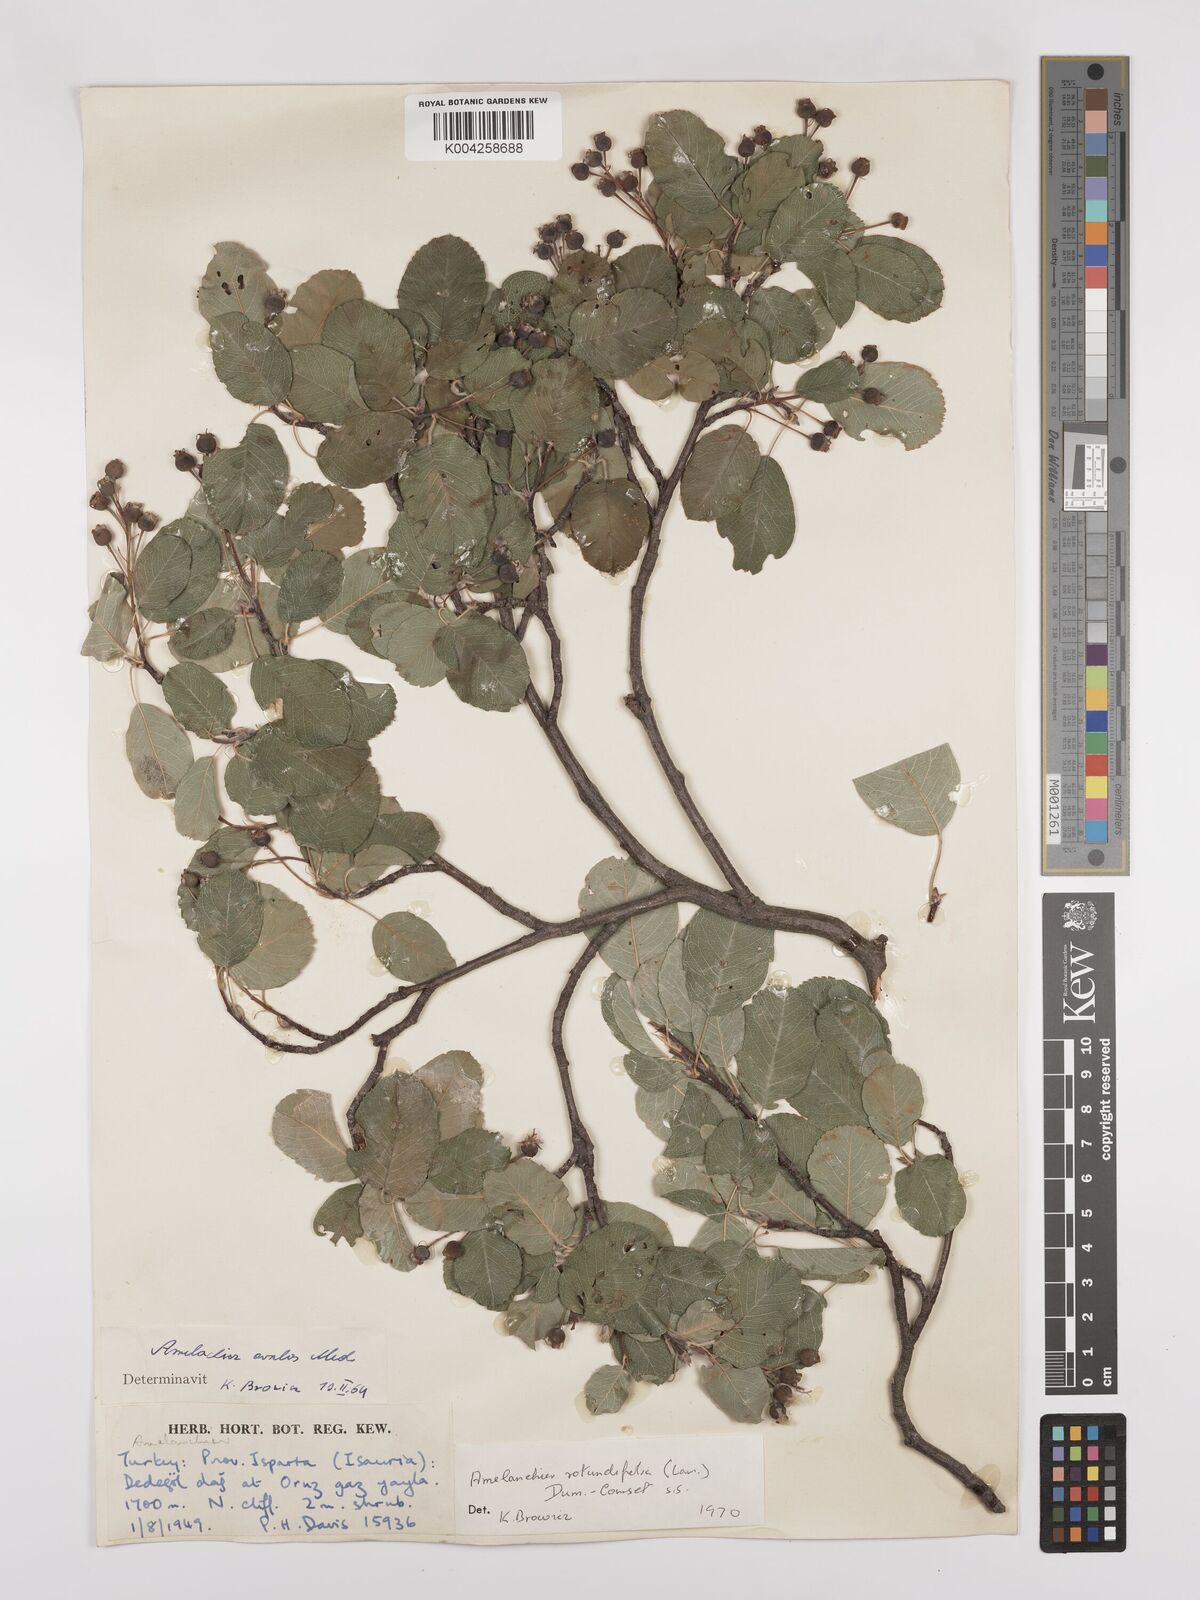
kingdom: Plantae
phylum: Tracheophyta
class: Magnoliopsida
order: Rosales
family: Rosaceae
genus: Amelanchier
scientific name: Amelanchier ovalis
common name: Serviceberry
